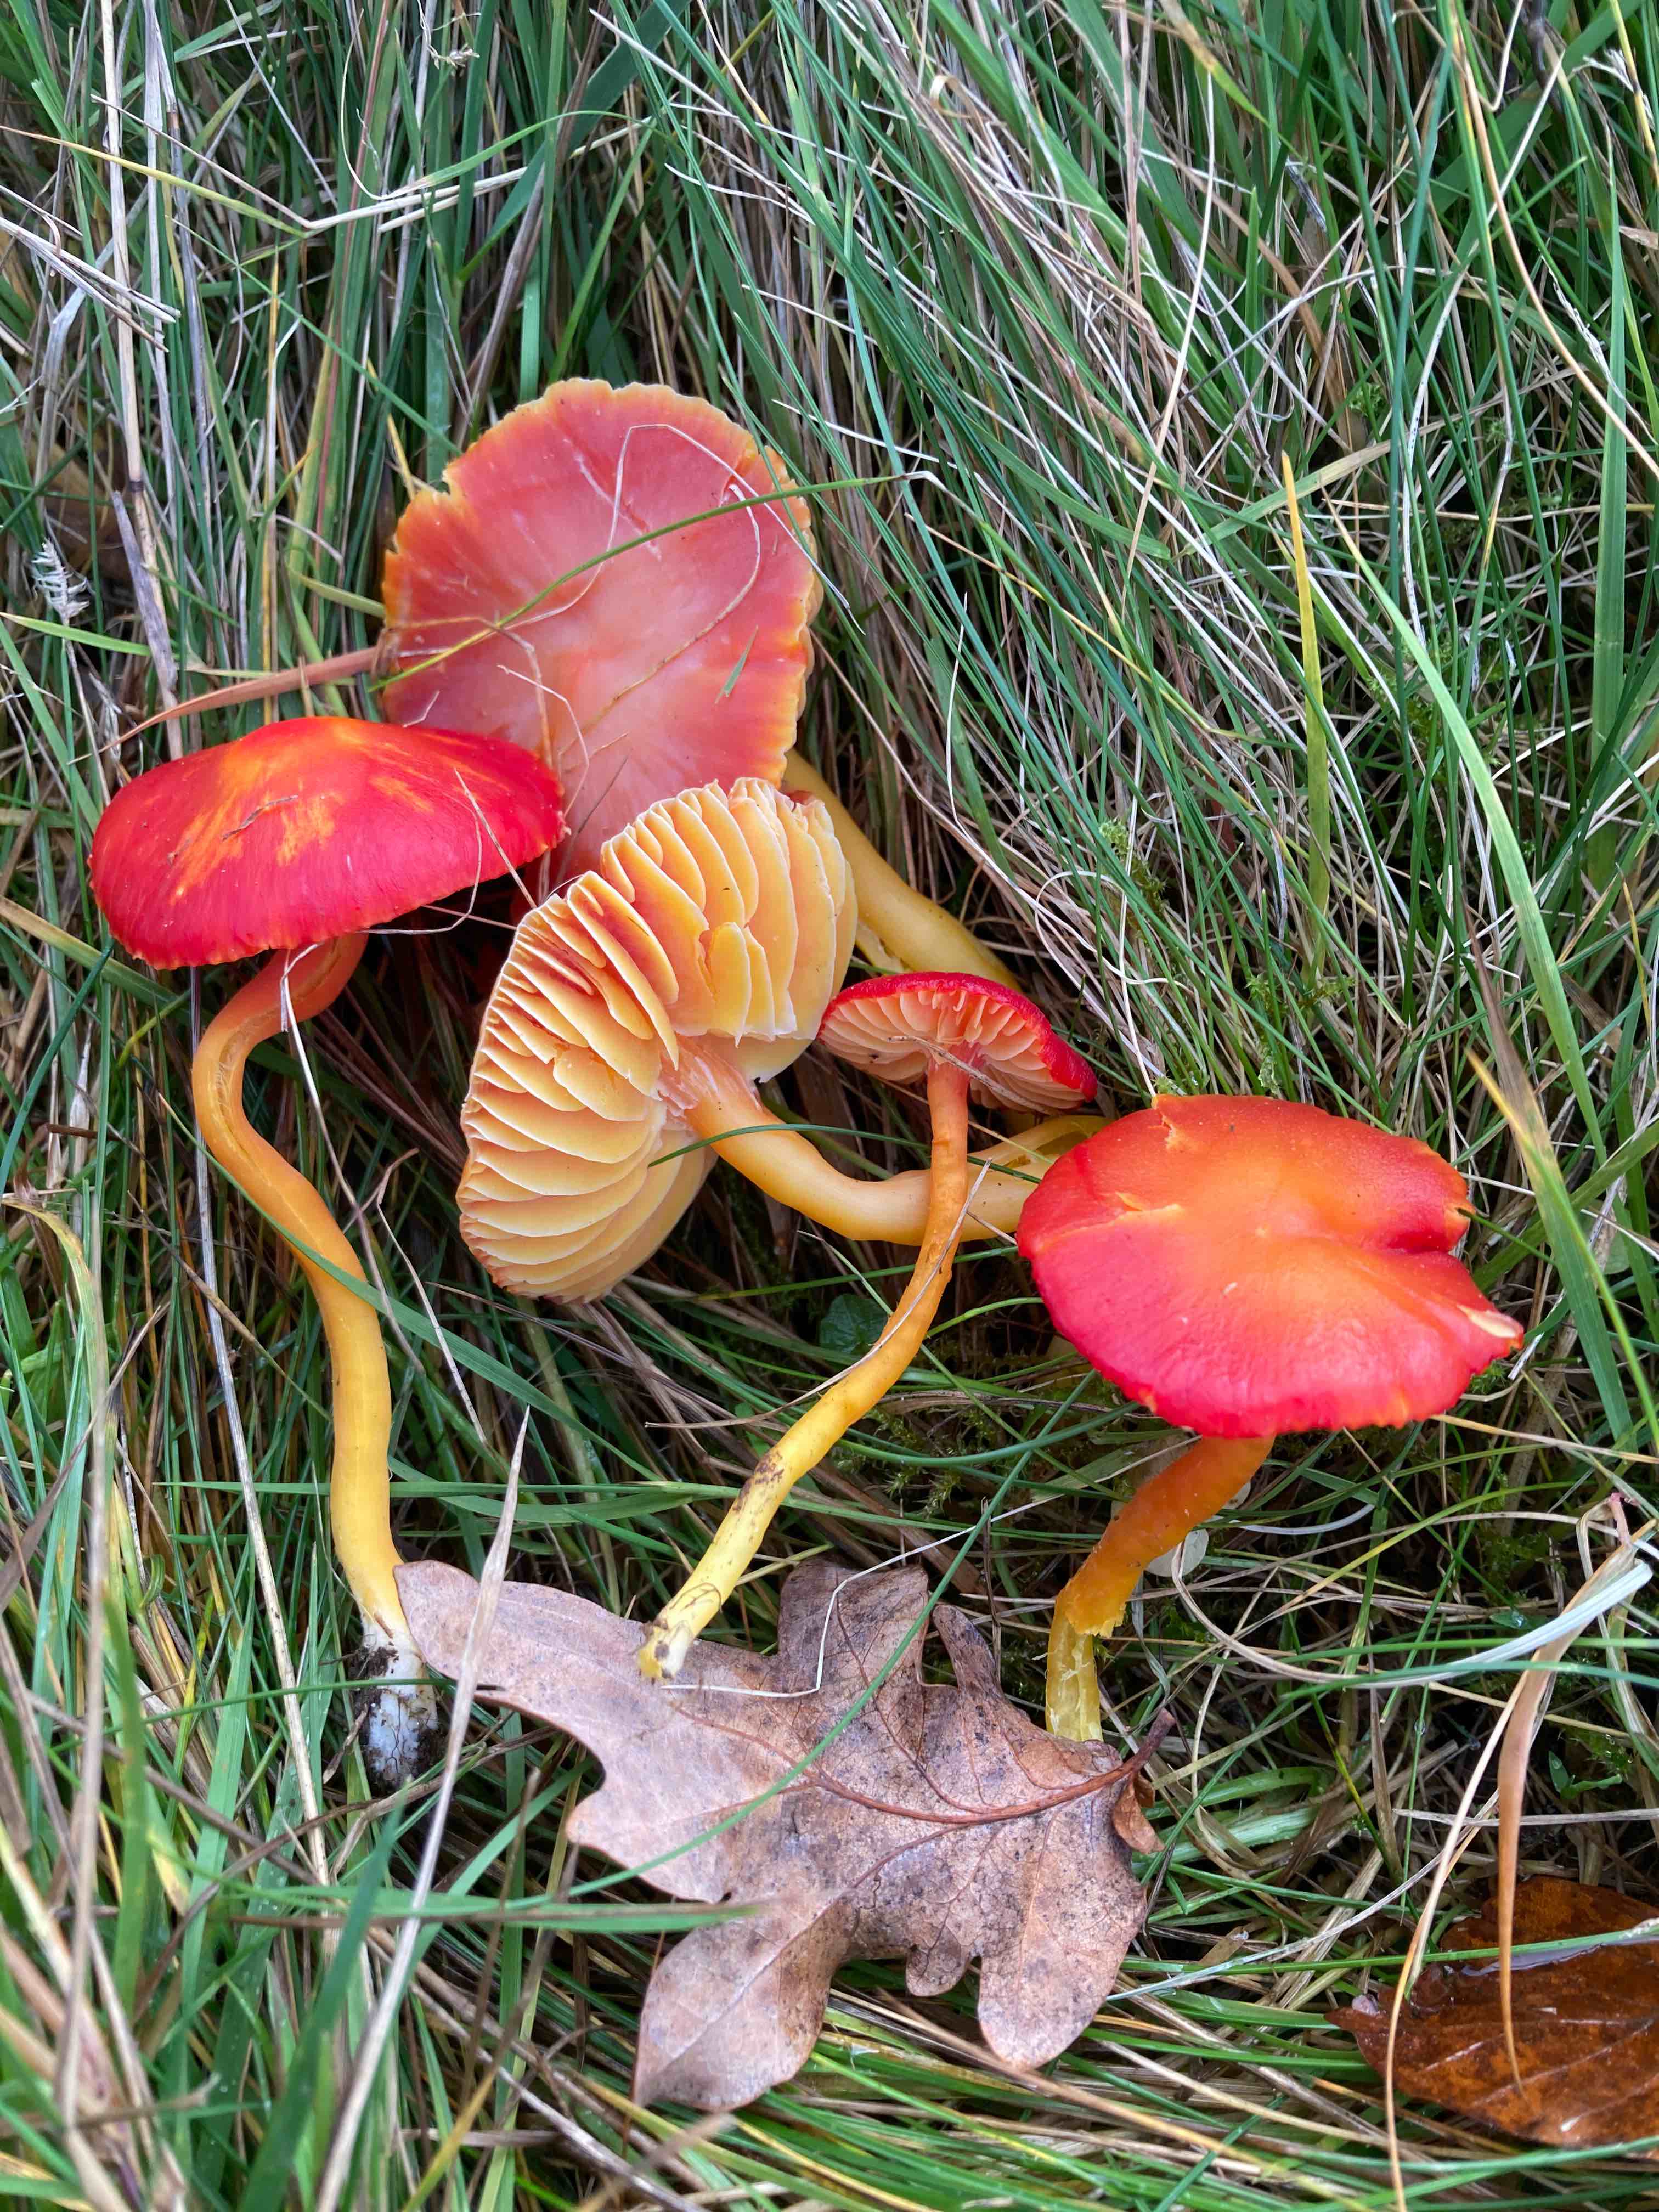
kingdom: Fungi
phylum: Basidiomycota
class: Agaricomycetes
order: Agaricales
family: Hygrophoraceae
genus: Hygrocybe
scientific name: Hygrocybe coccinea
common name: cinnober-vokshat
